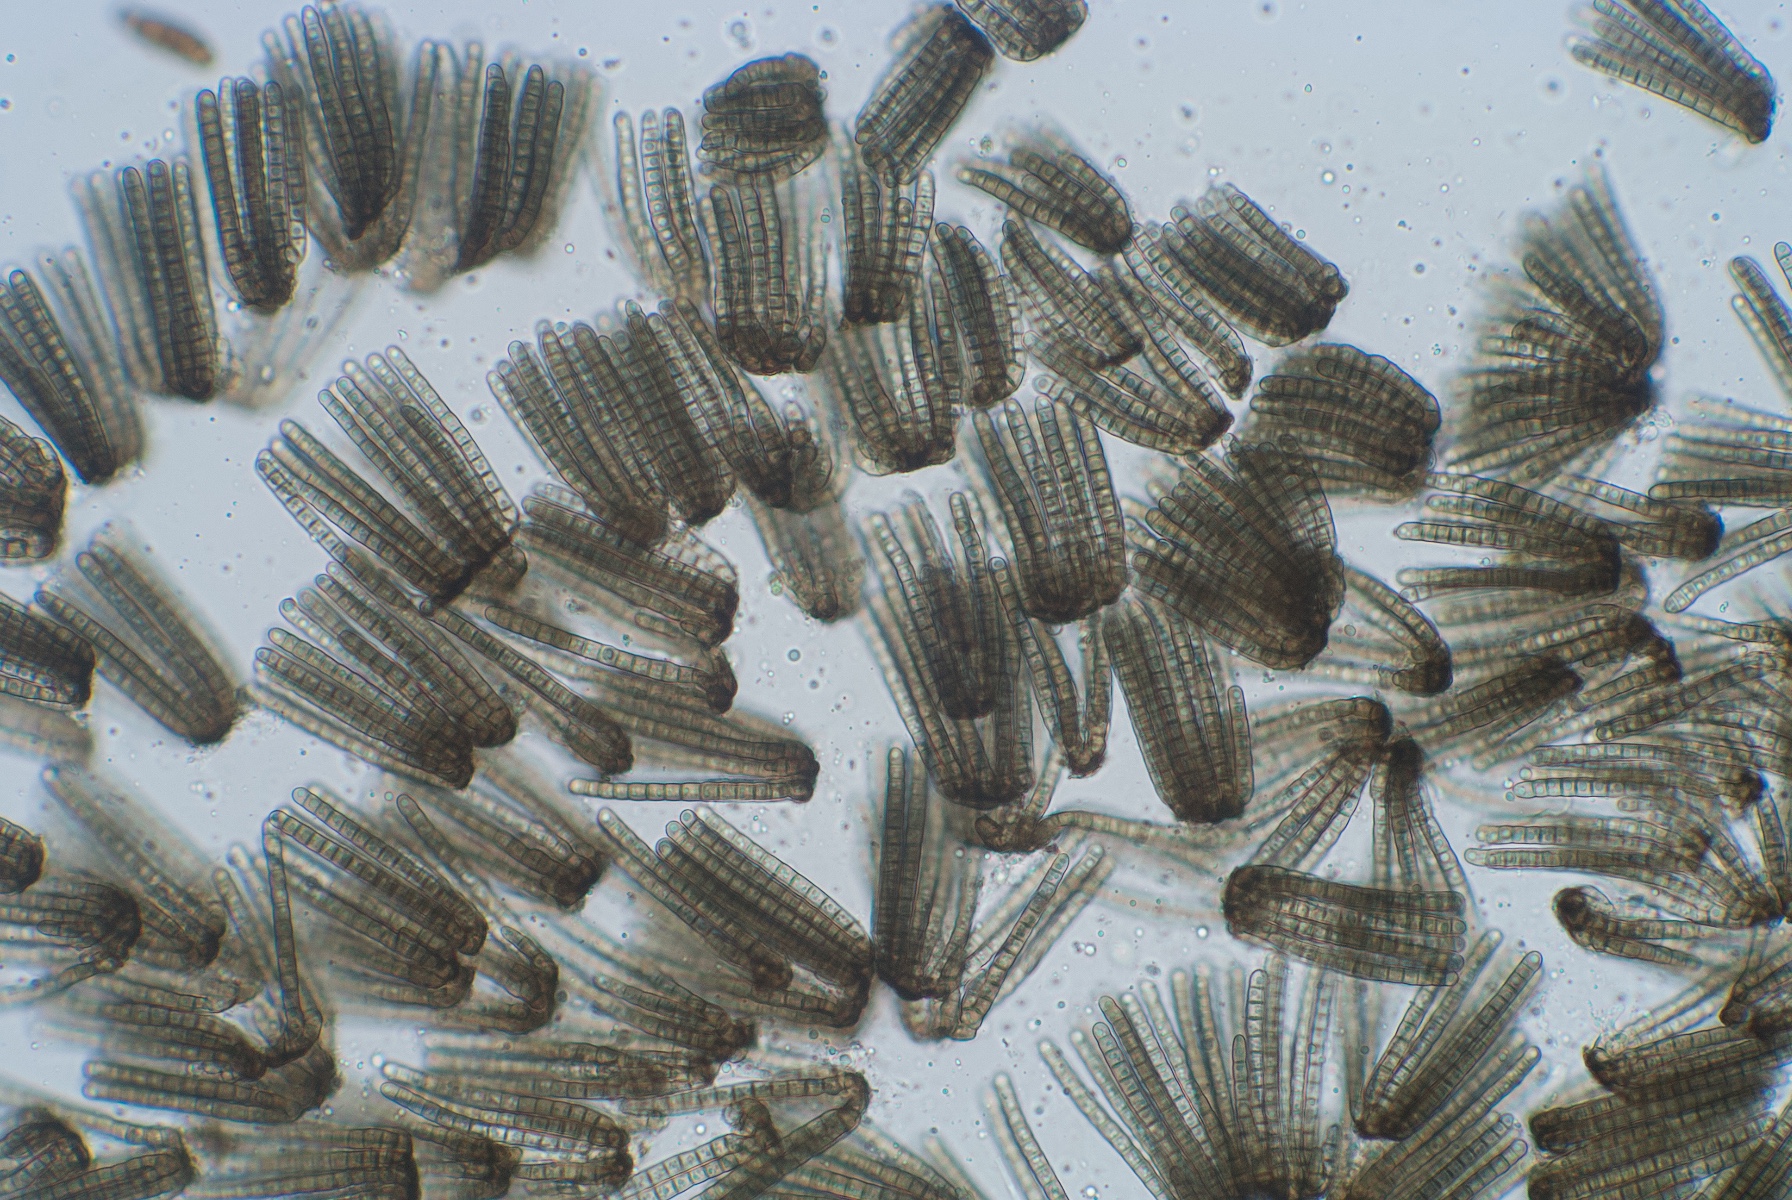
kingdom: Fungi
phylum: Ascomycota
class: Dothideomycetes
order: Pleosporales
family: Cryptocoryneaceae
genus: Cryptocoryneum
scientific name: Cryptocoryneum condensatum
